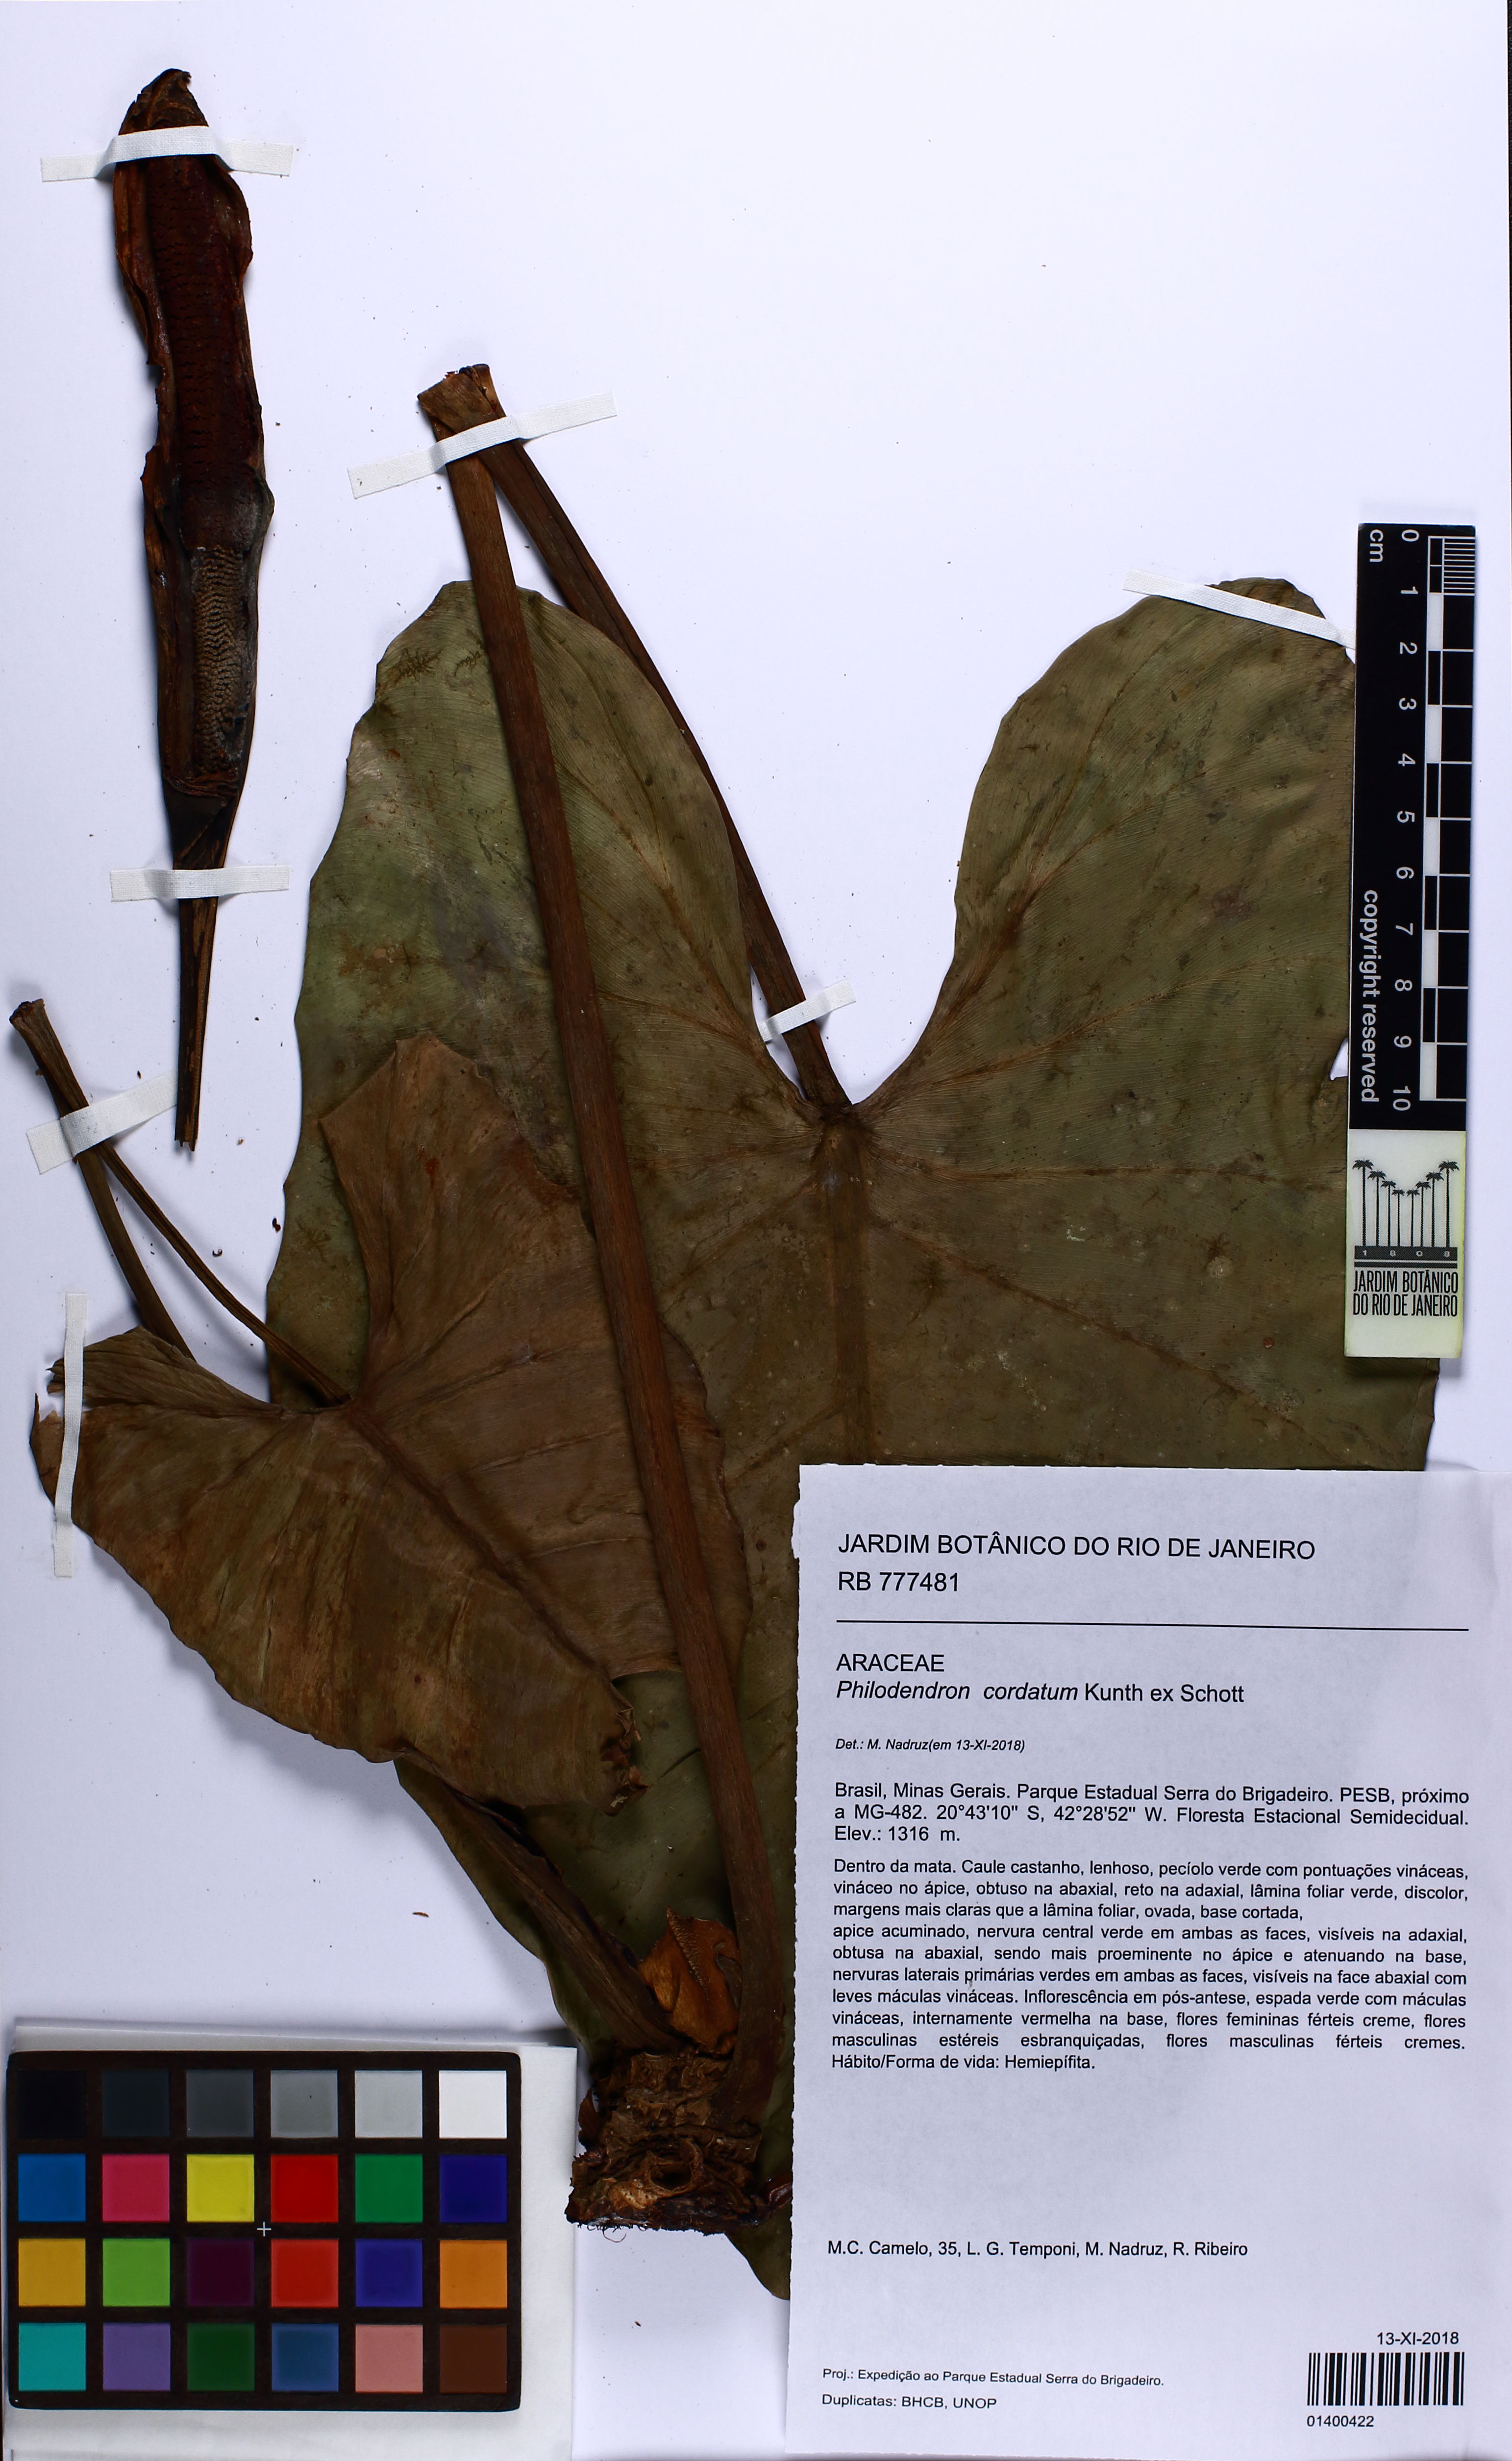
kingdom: Plantae
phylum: Tracheophyta
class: Liliopsida
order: Alismatales
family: Araceae
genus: Philodendron
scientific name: Philodendron cordatum
